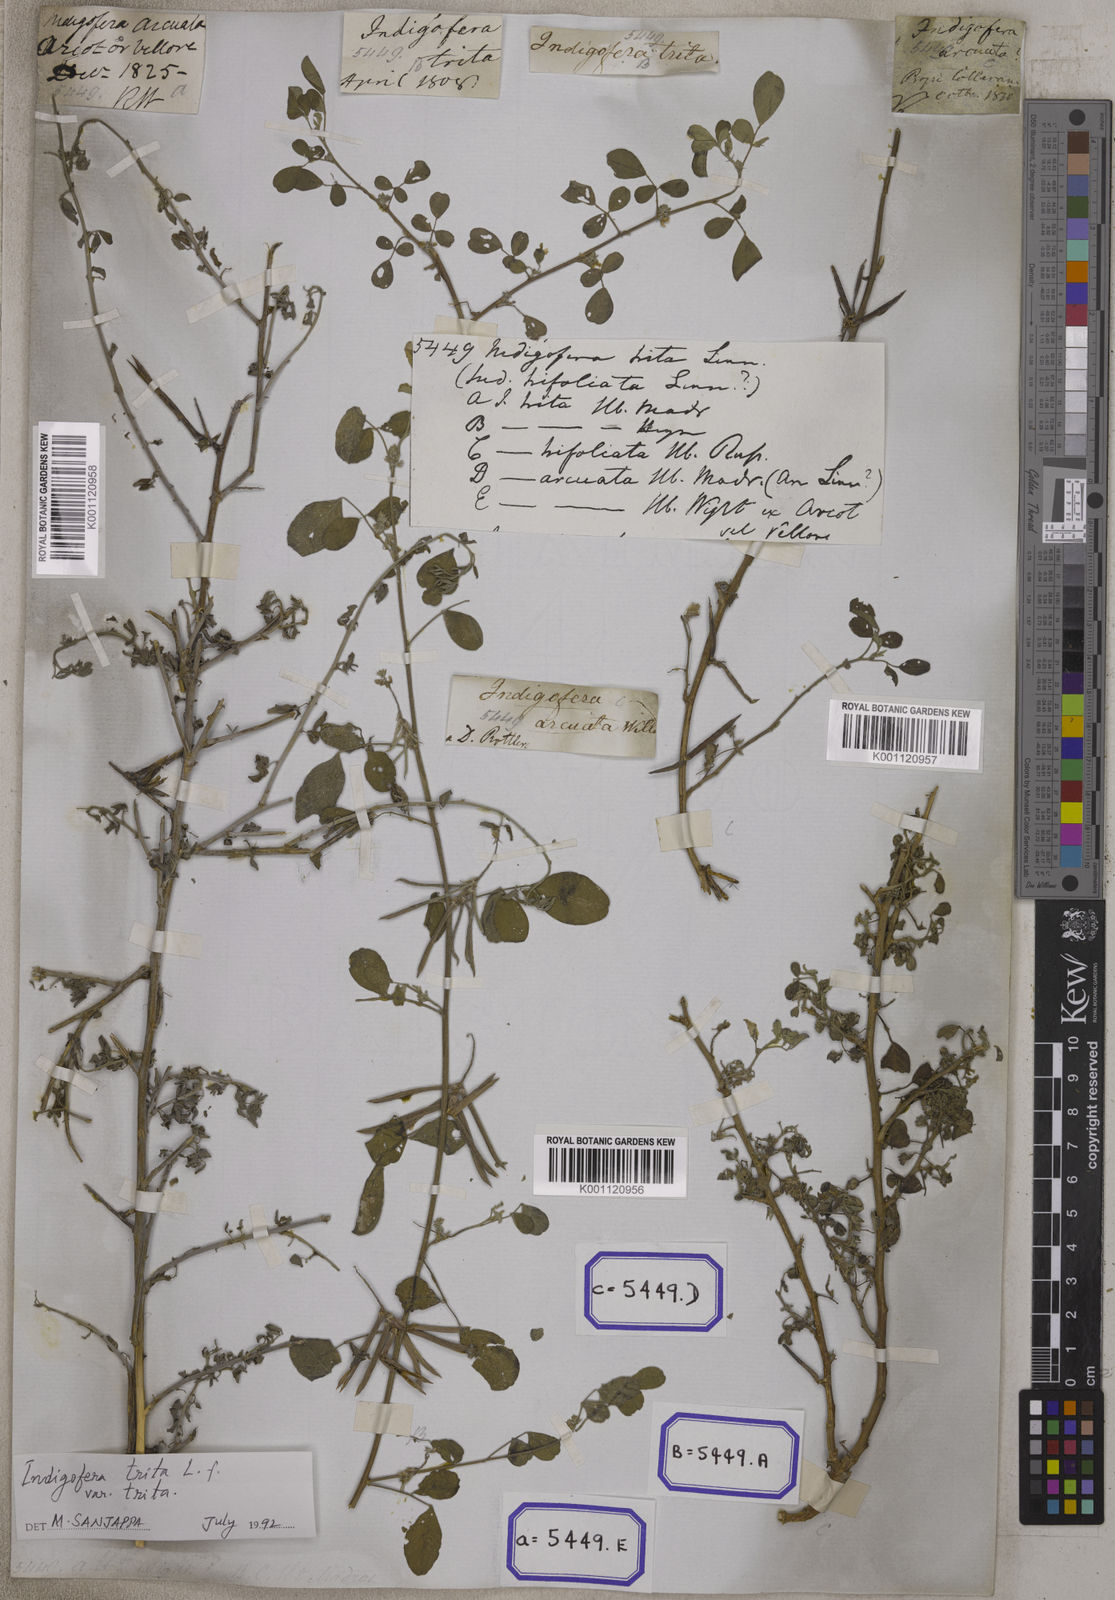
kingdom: Plantae
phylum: Tracheophyta
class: Magnoliopsida
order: Fabales
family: Fabaceae
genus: Indigofera
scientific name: Indigofera trita
